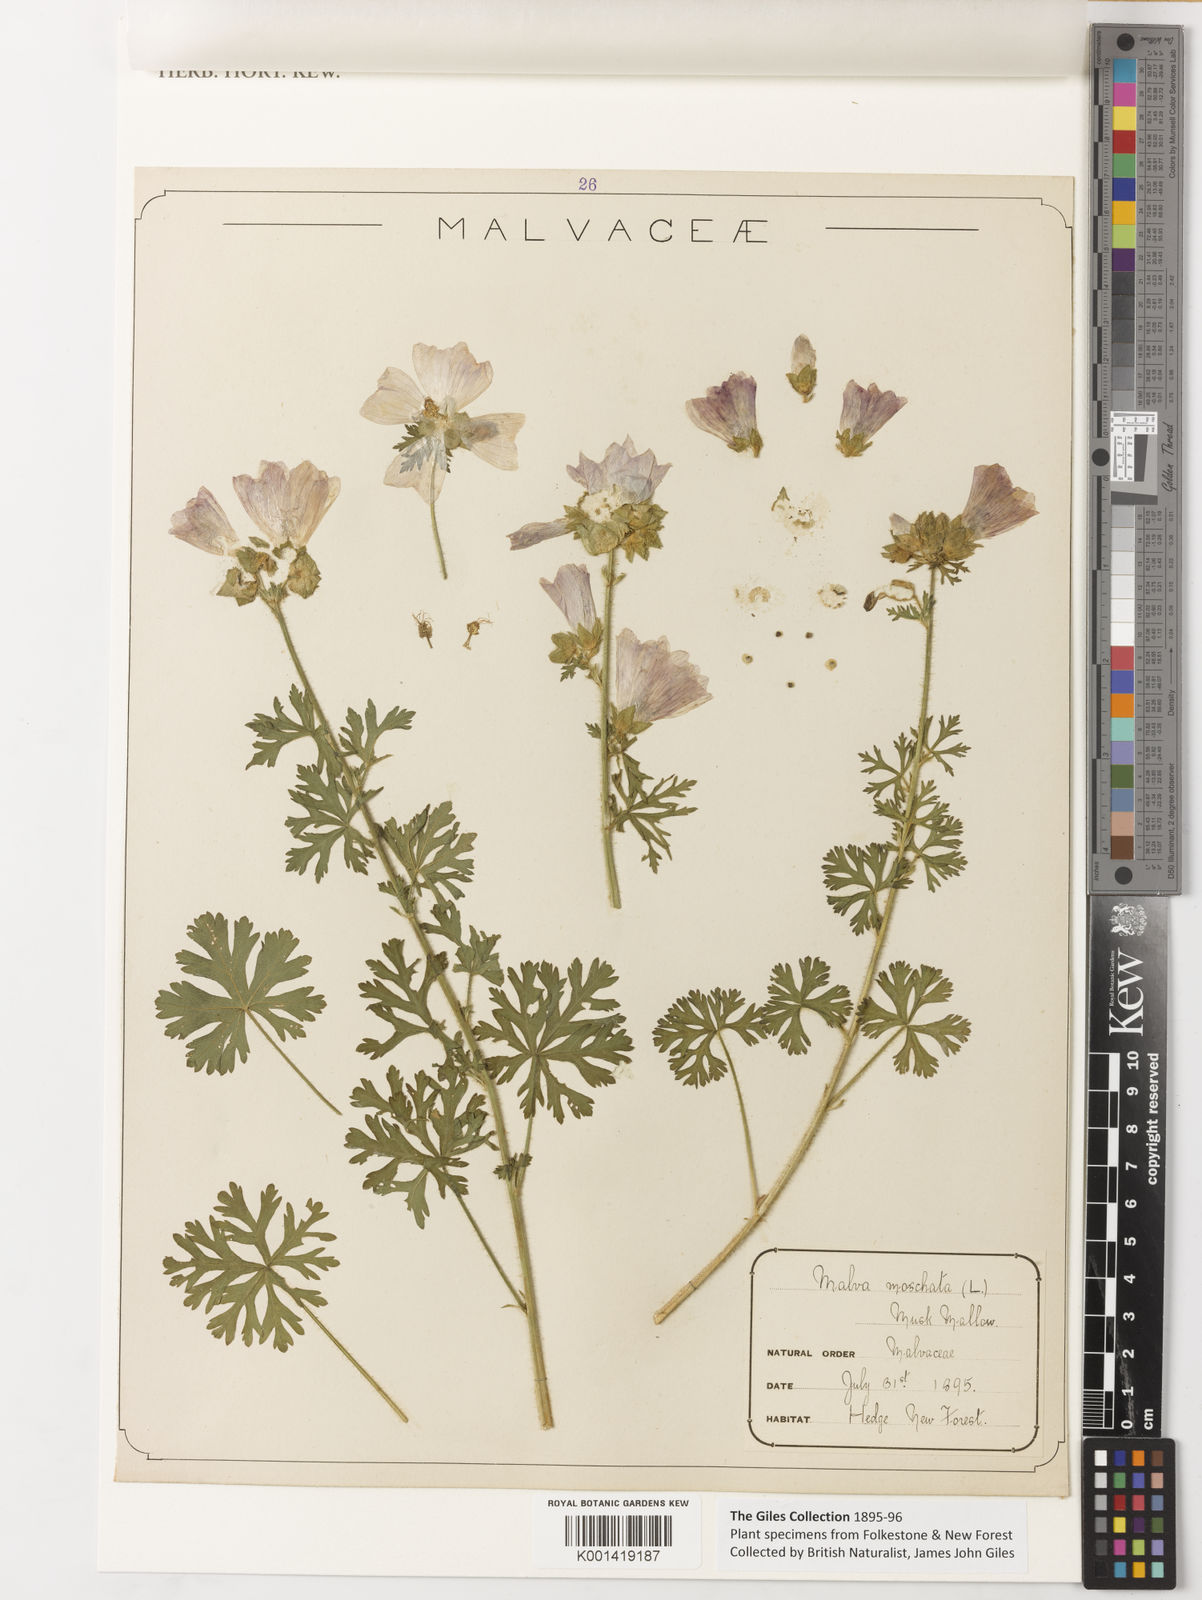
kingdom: Plantae
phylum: Tracheophyta
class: Magnoliopsida
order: Malvales
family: Malvaceae
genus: Malva
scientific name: Malva moschata
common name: Musk mallow
